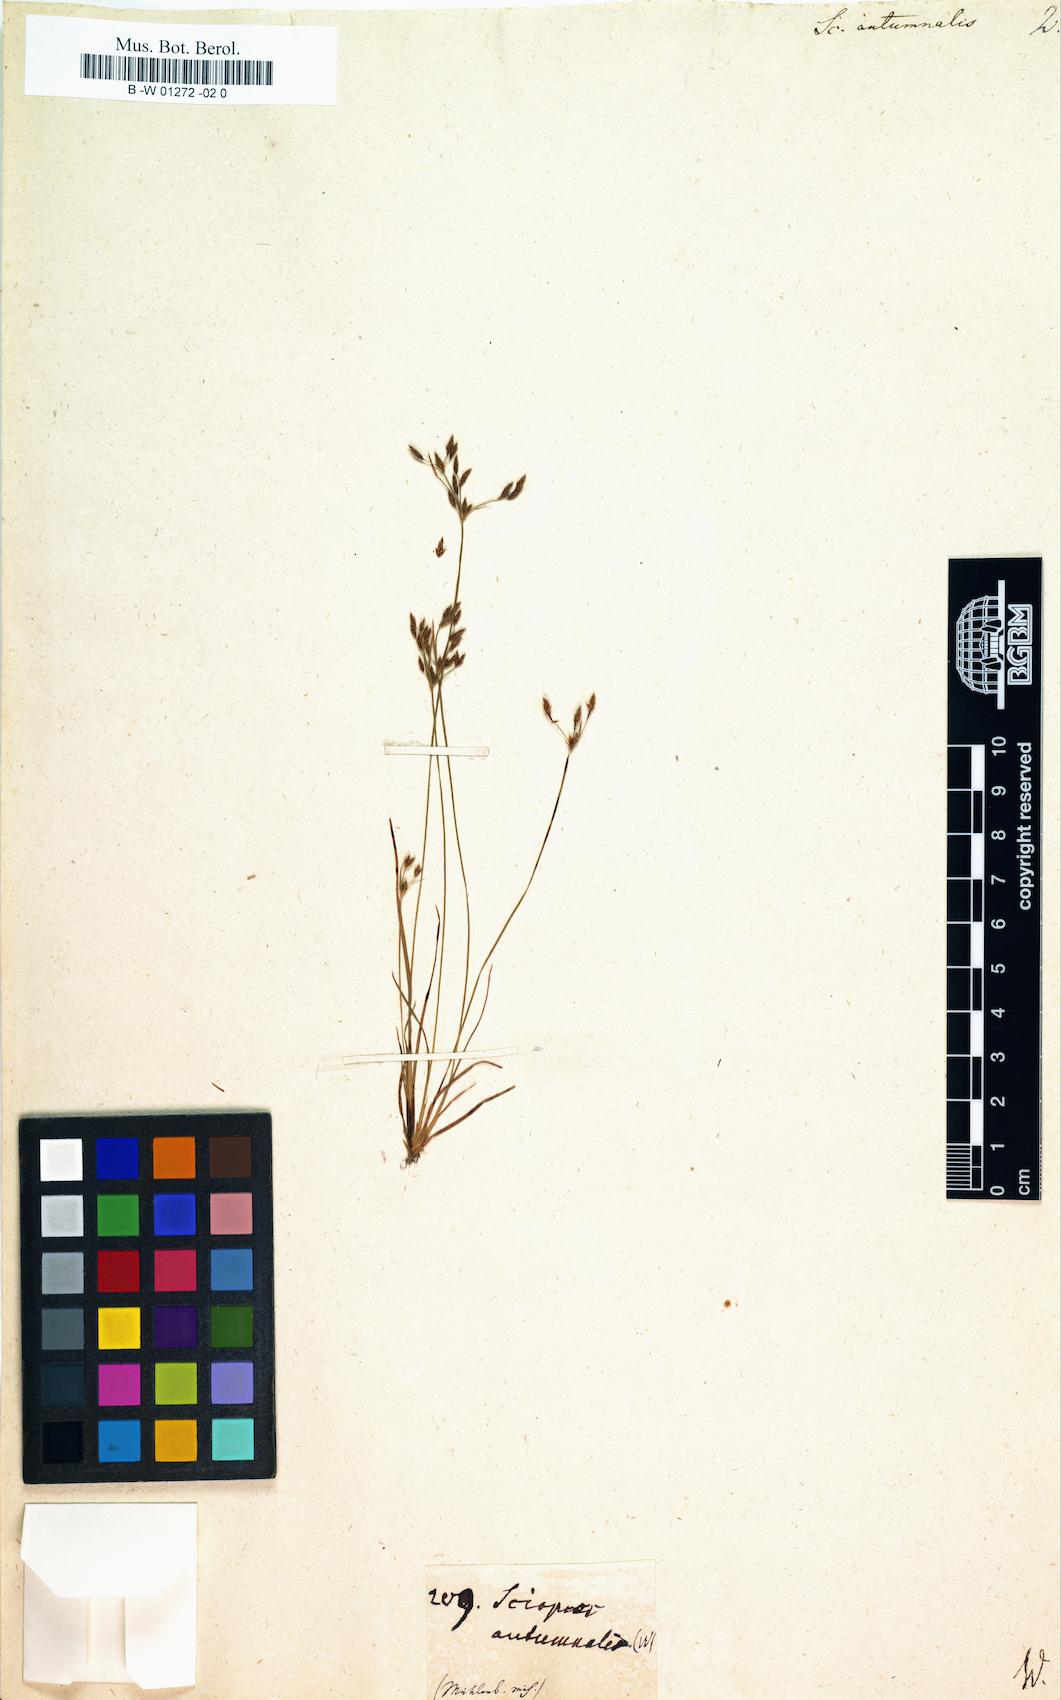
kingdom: Plantae
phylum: Tracheophyta
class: Liliopsida
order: Poales
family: Cyperaceae
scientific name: Cyperaceae
